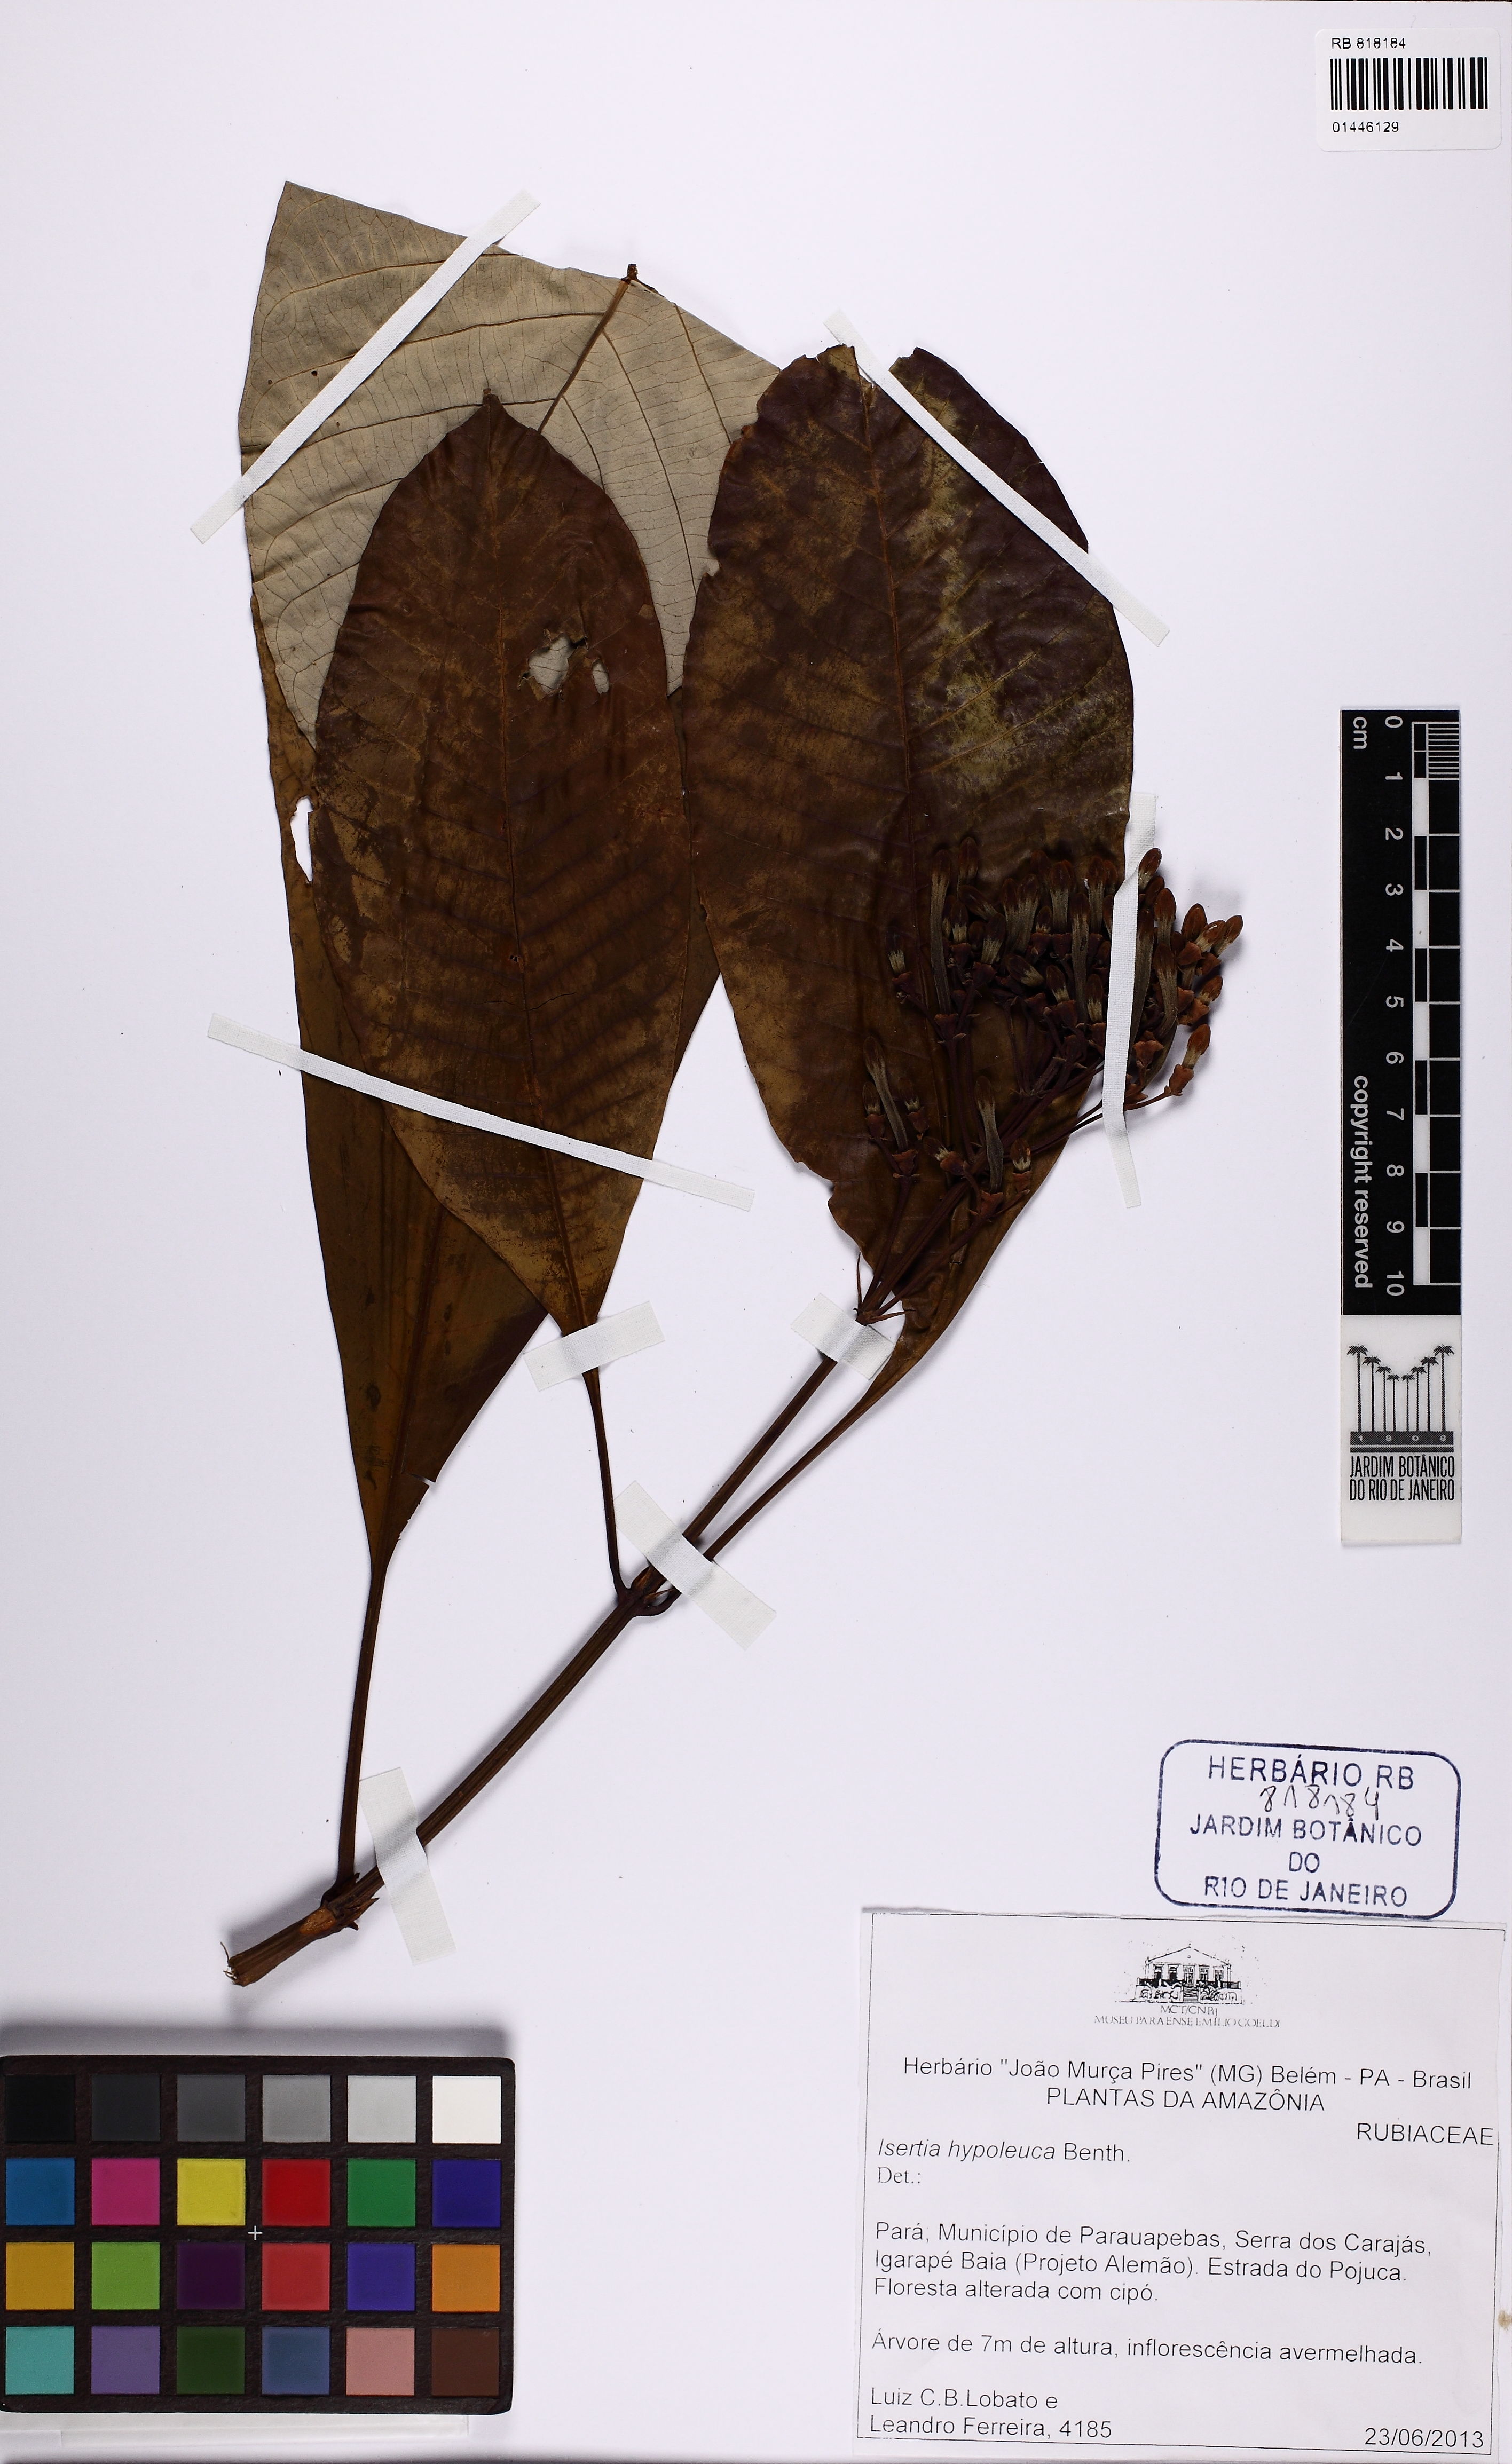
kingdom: Plantae
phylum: Tracheophyta
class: Magnoliopsida
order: Gentianales
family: Rubiaceae
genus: Isertia
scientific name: Isertia hypoleuca
